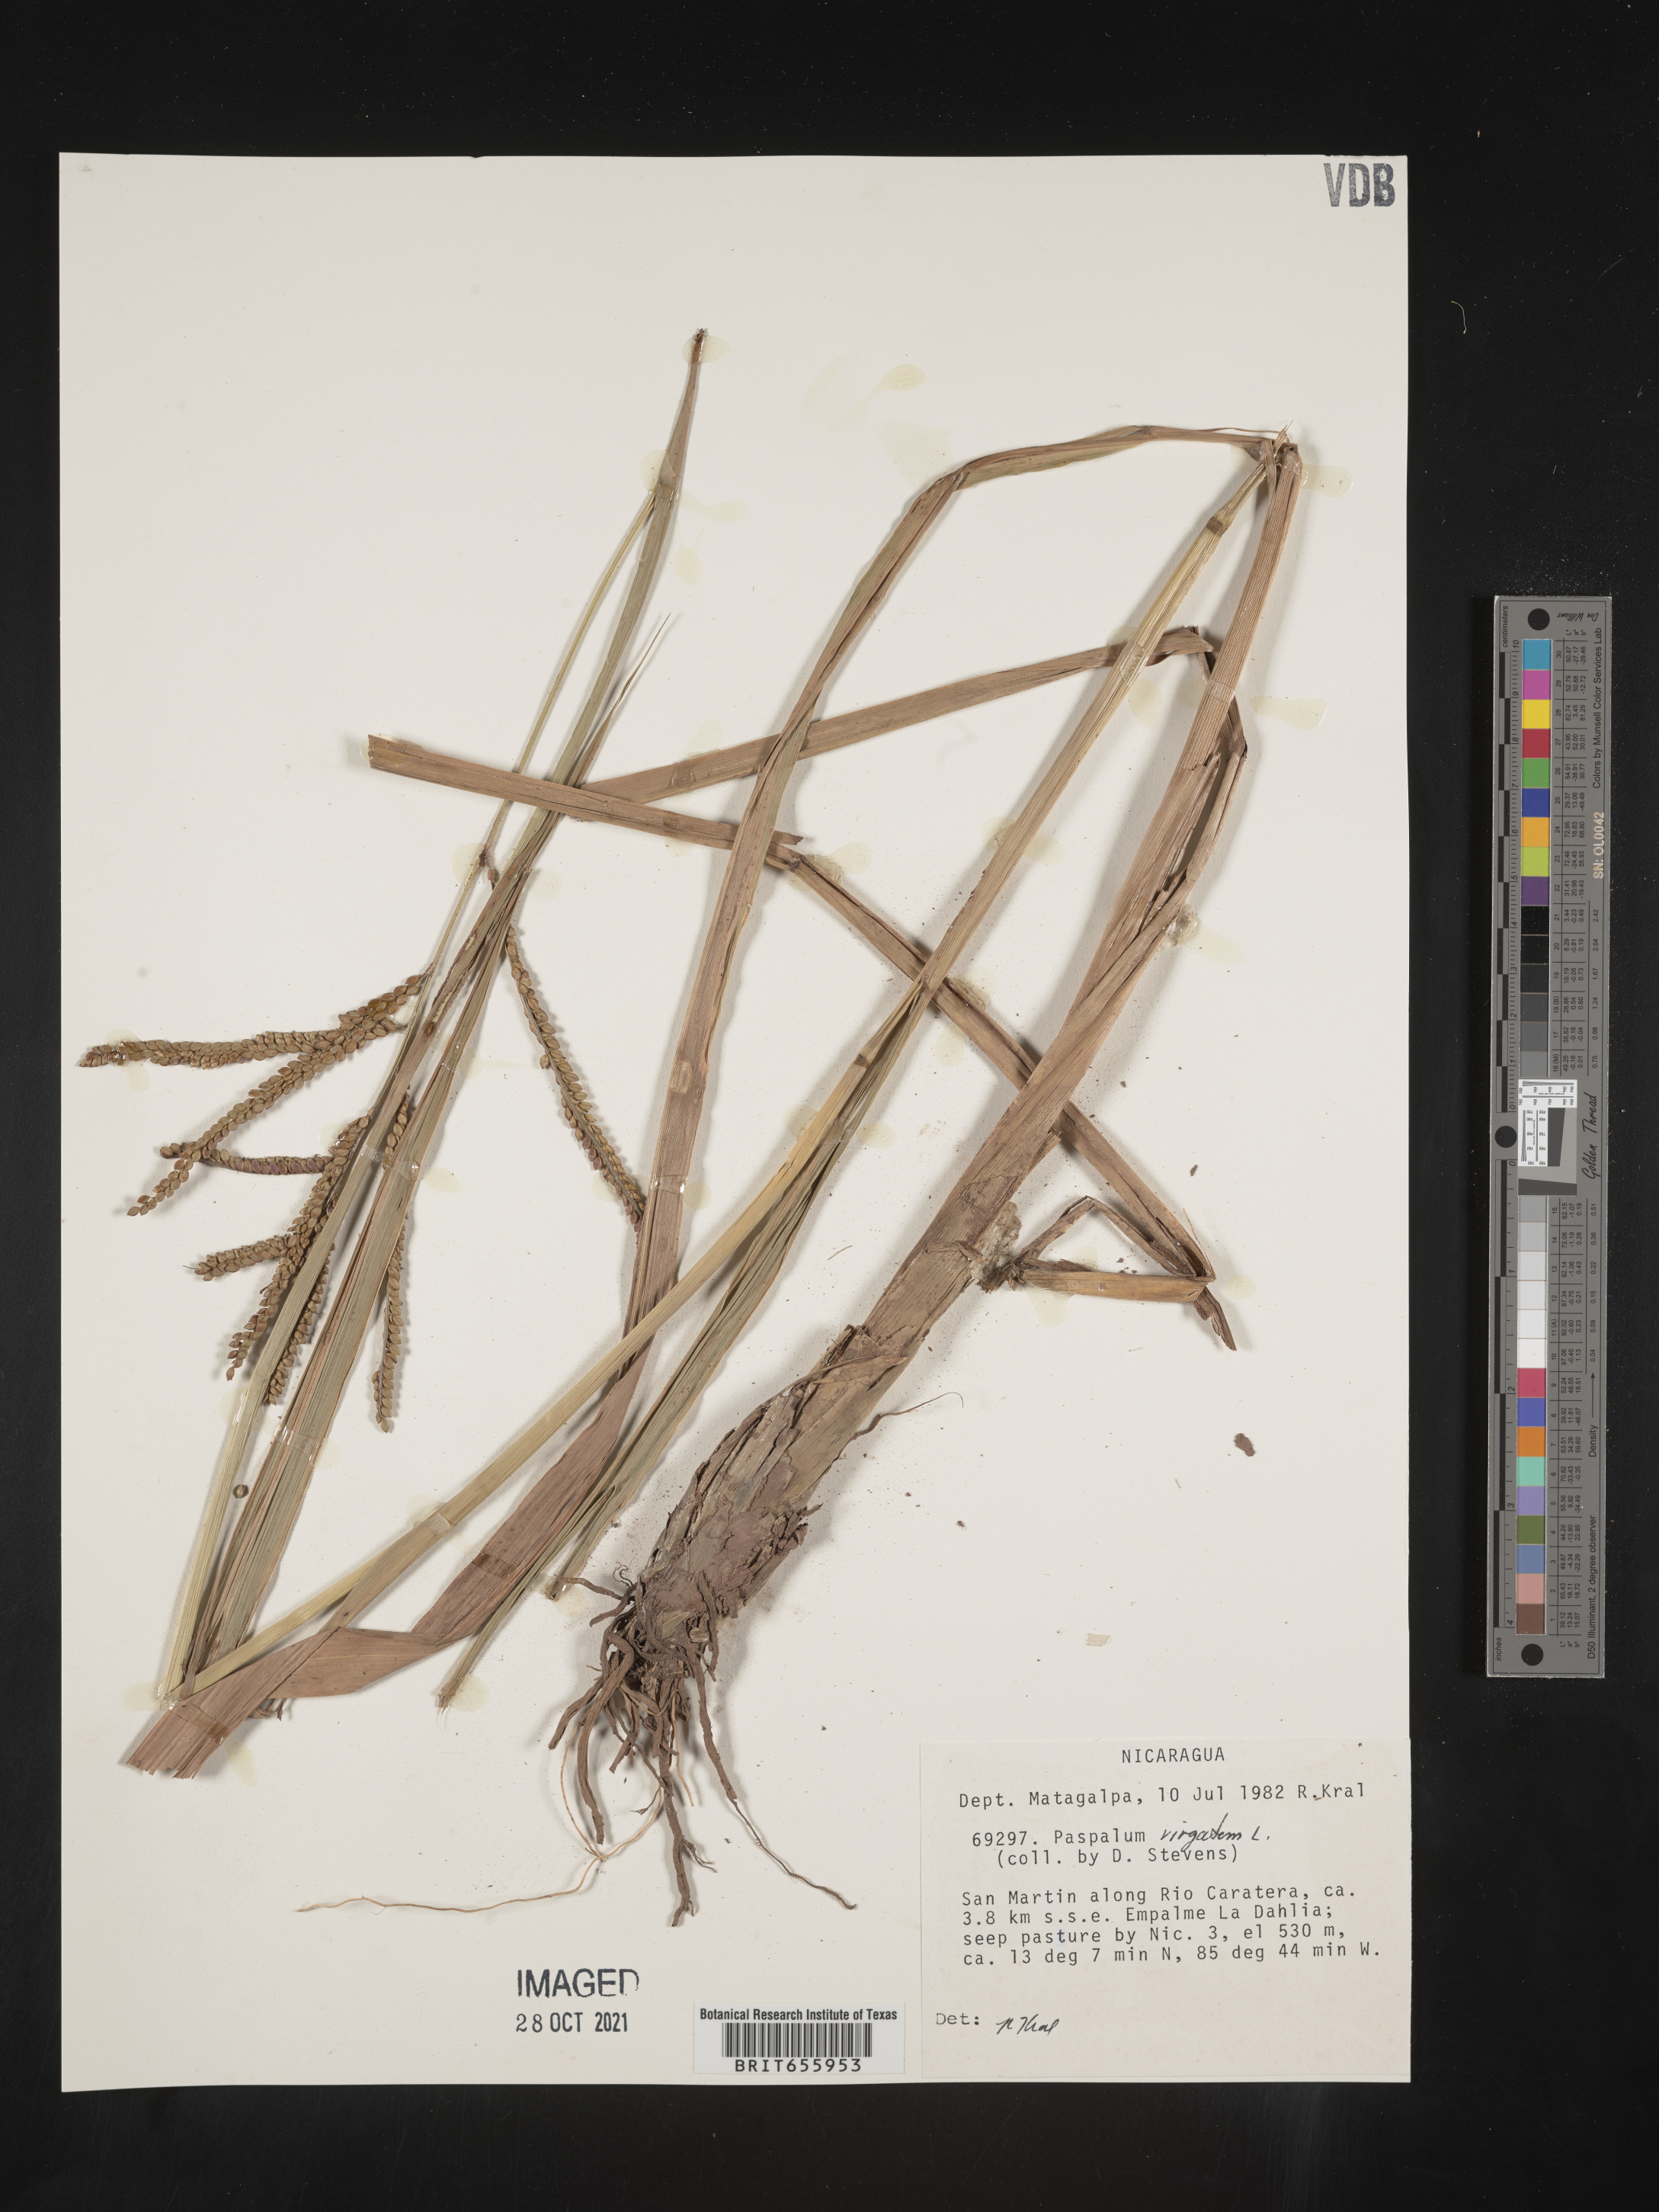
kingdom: Plantae
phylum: Tracheophyta
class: Liliopsida
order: Poales
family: Poaceae
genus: Paspalum
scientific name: Paspalum
